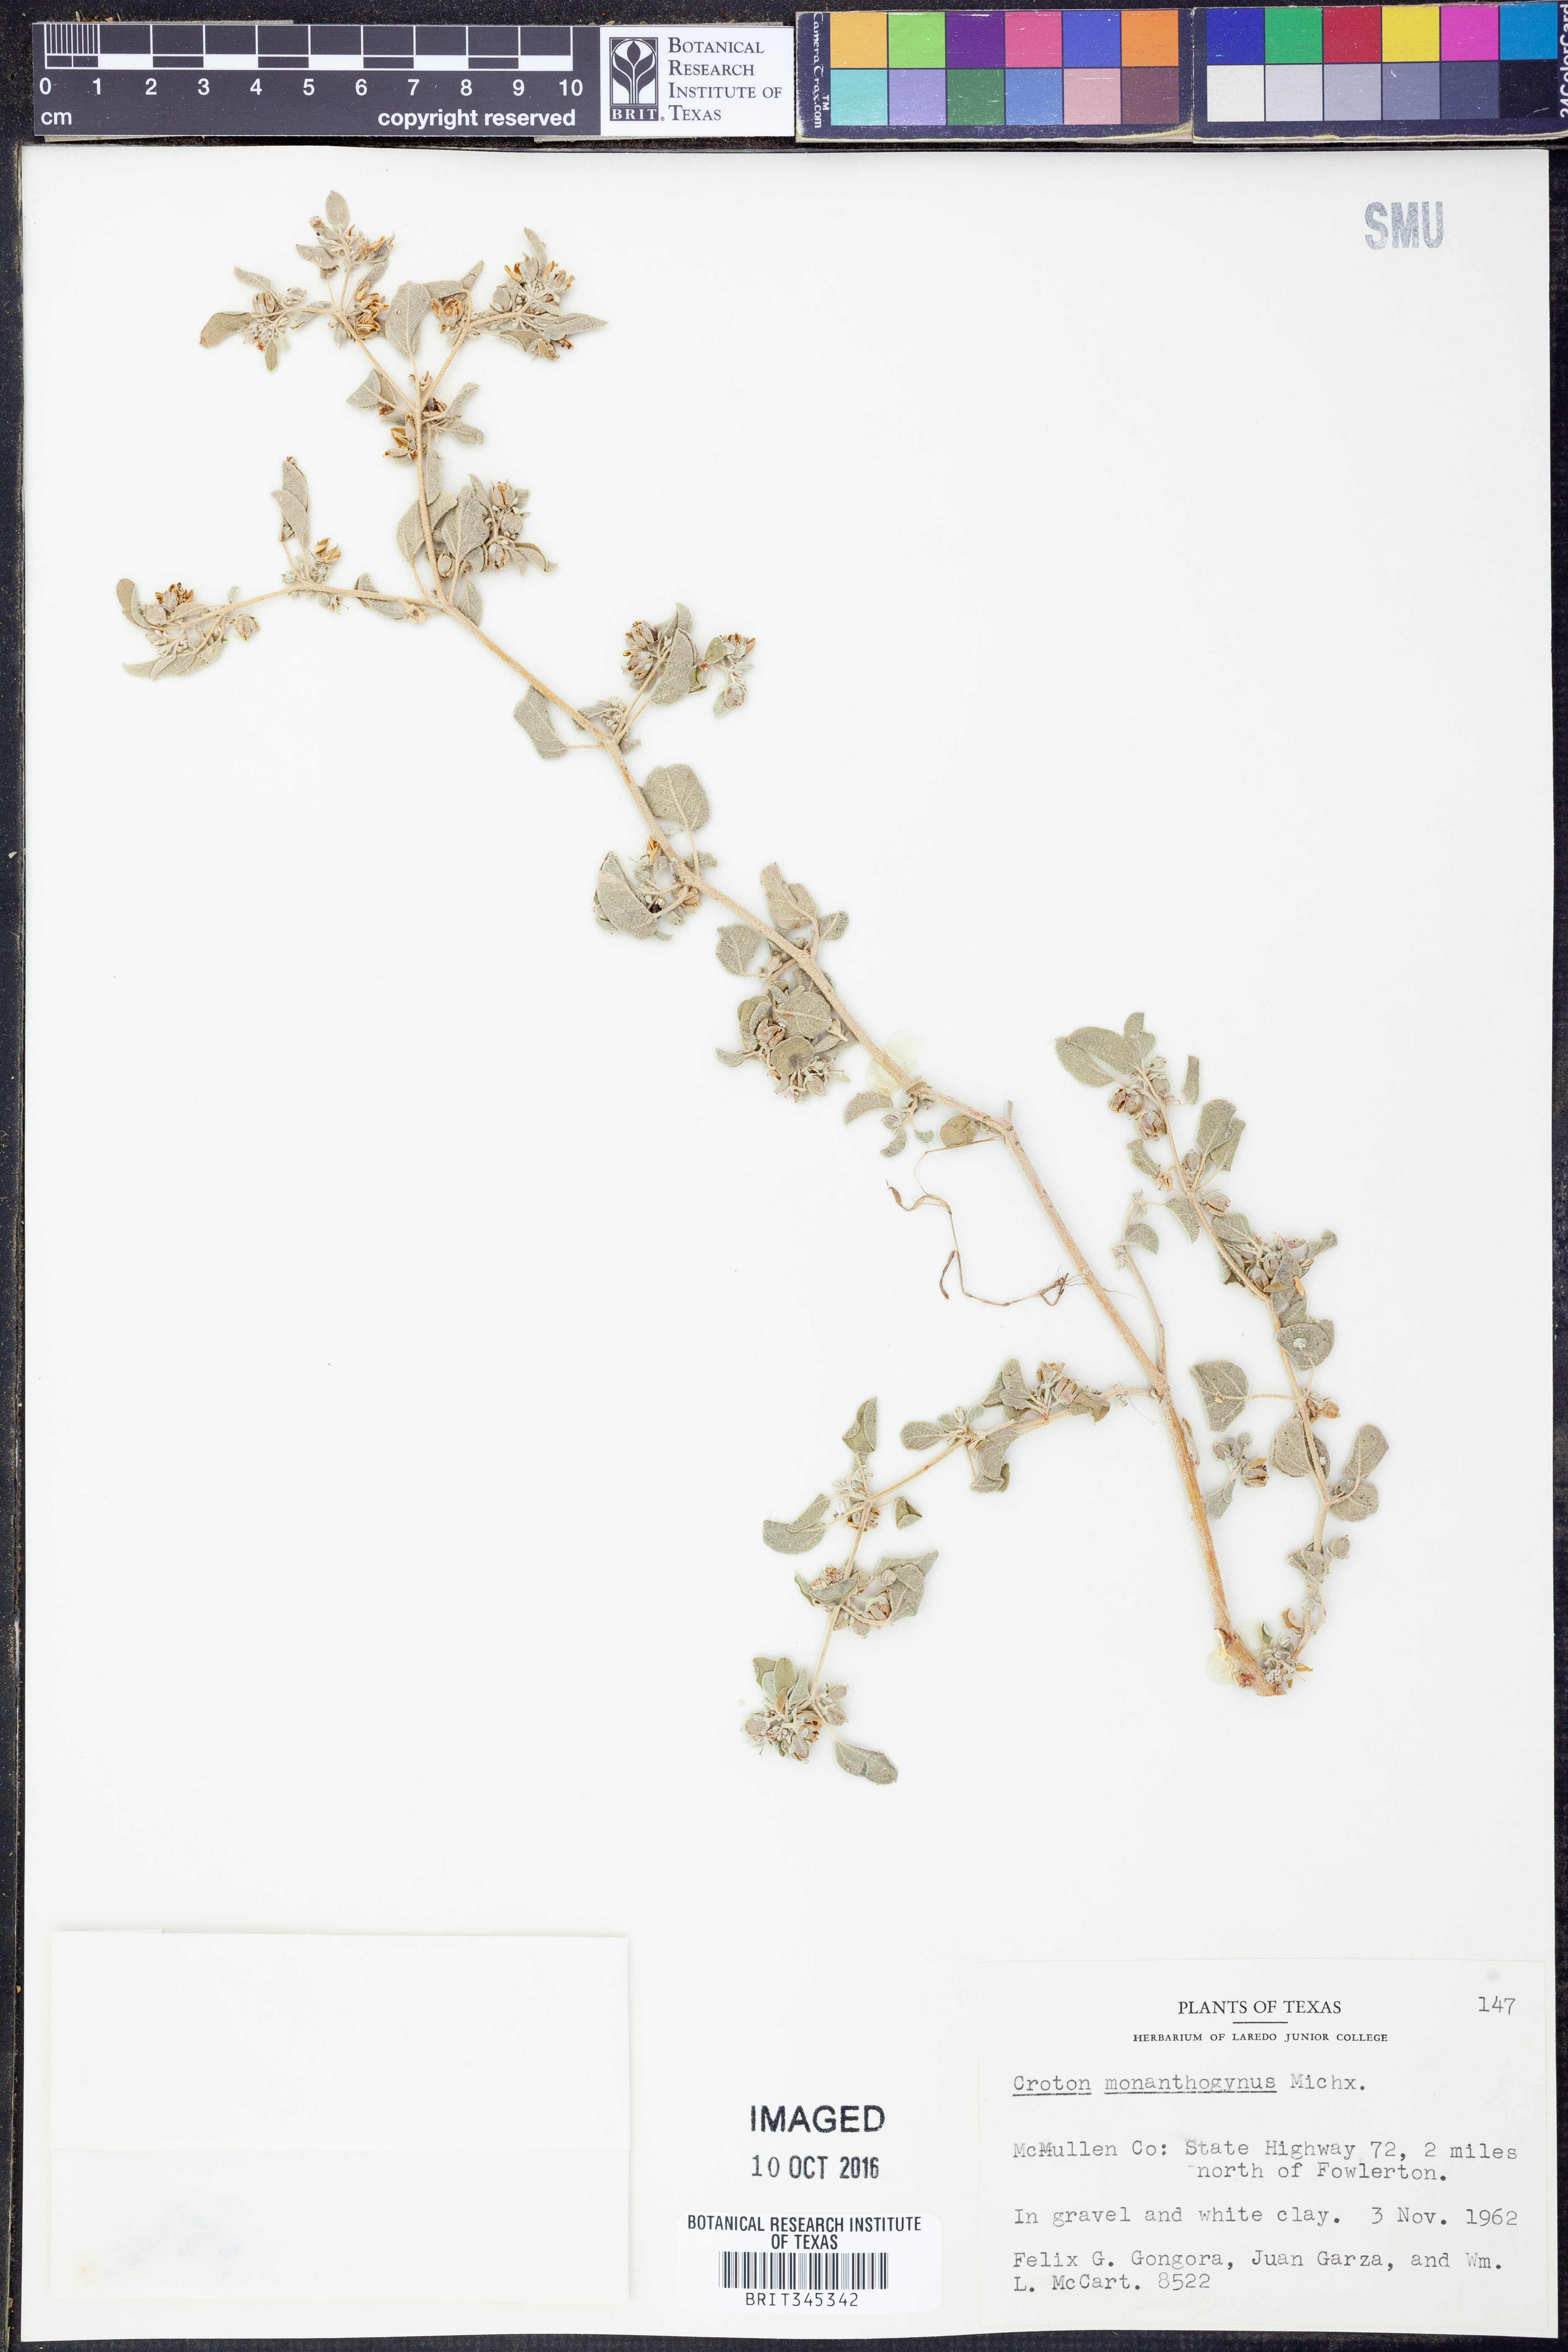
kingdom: Plantae
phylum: Tracheophyta
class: Magnoliopsida
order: Malpighiales
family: Euphorbiaceae
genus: Croton
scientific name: Croton monanthogynus
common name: One-seed croton
